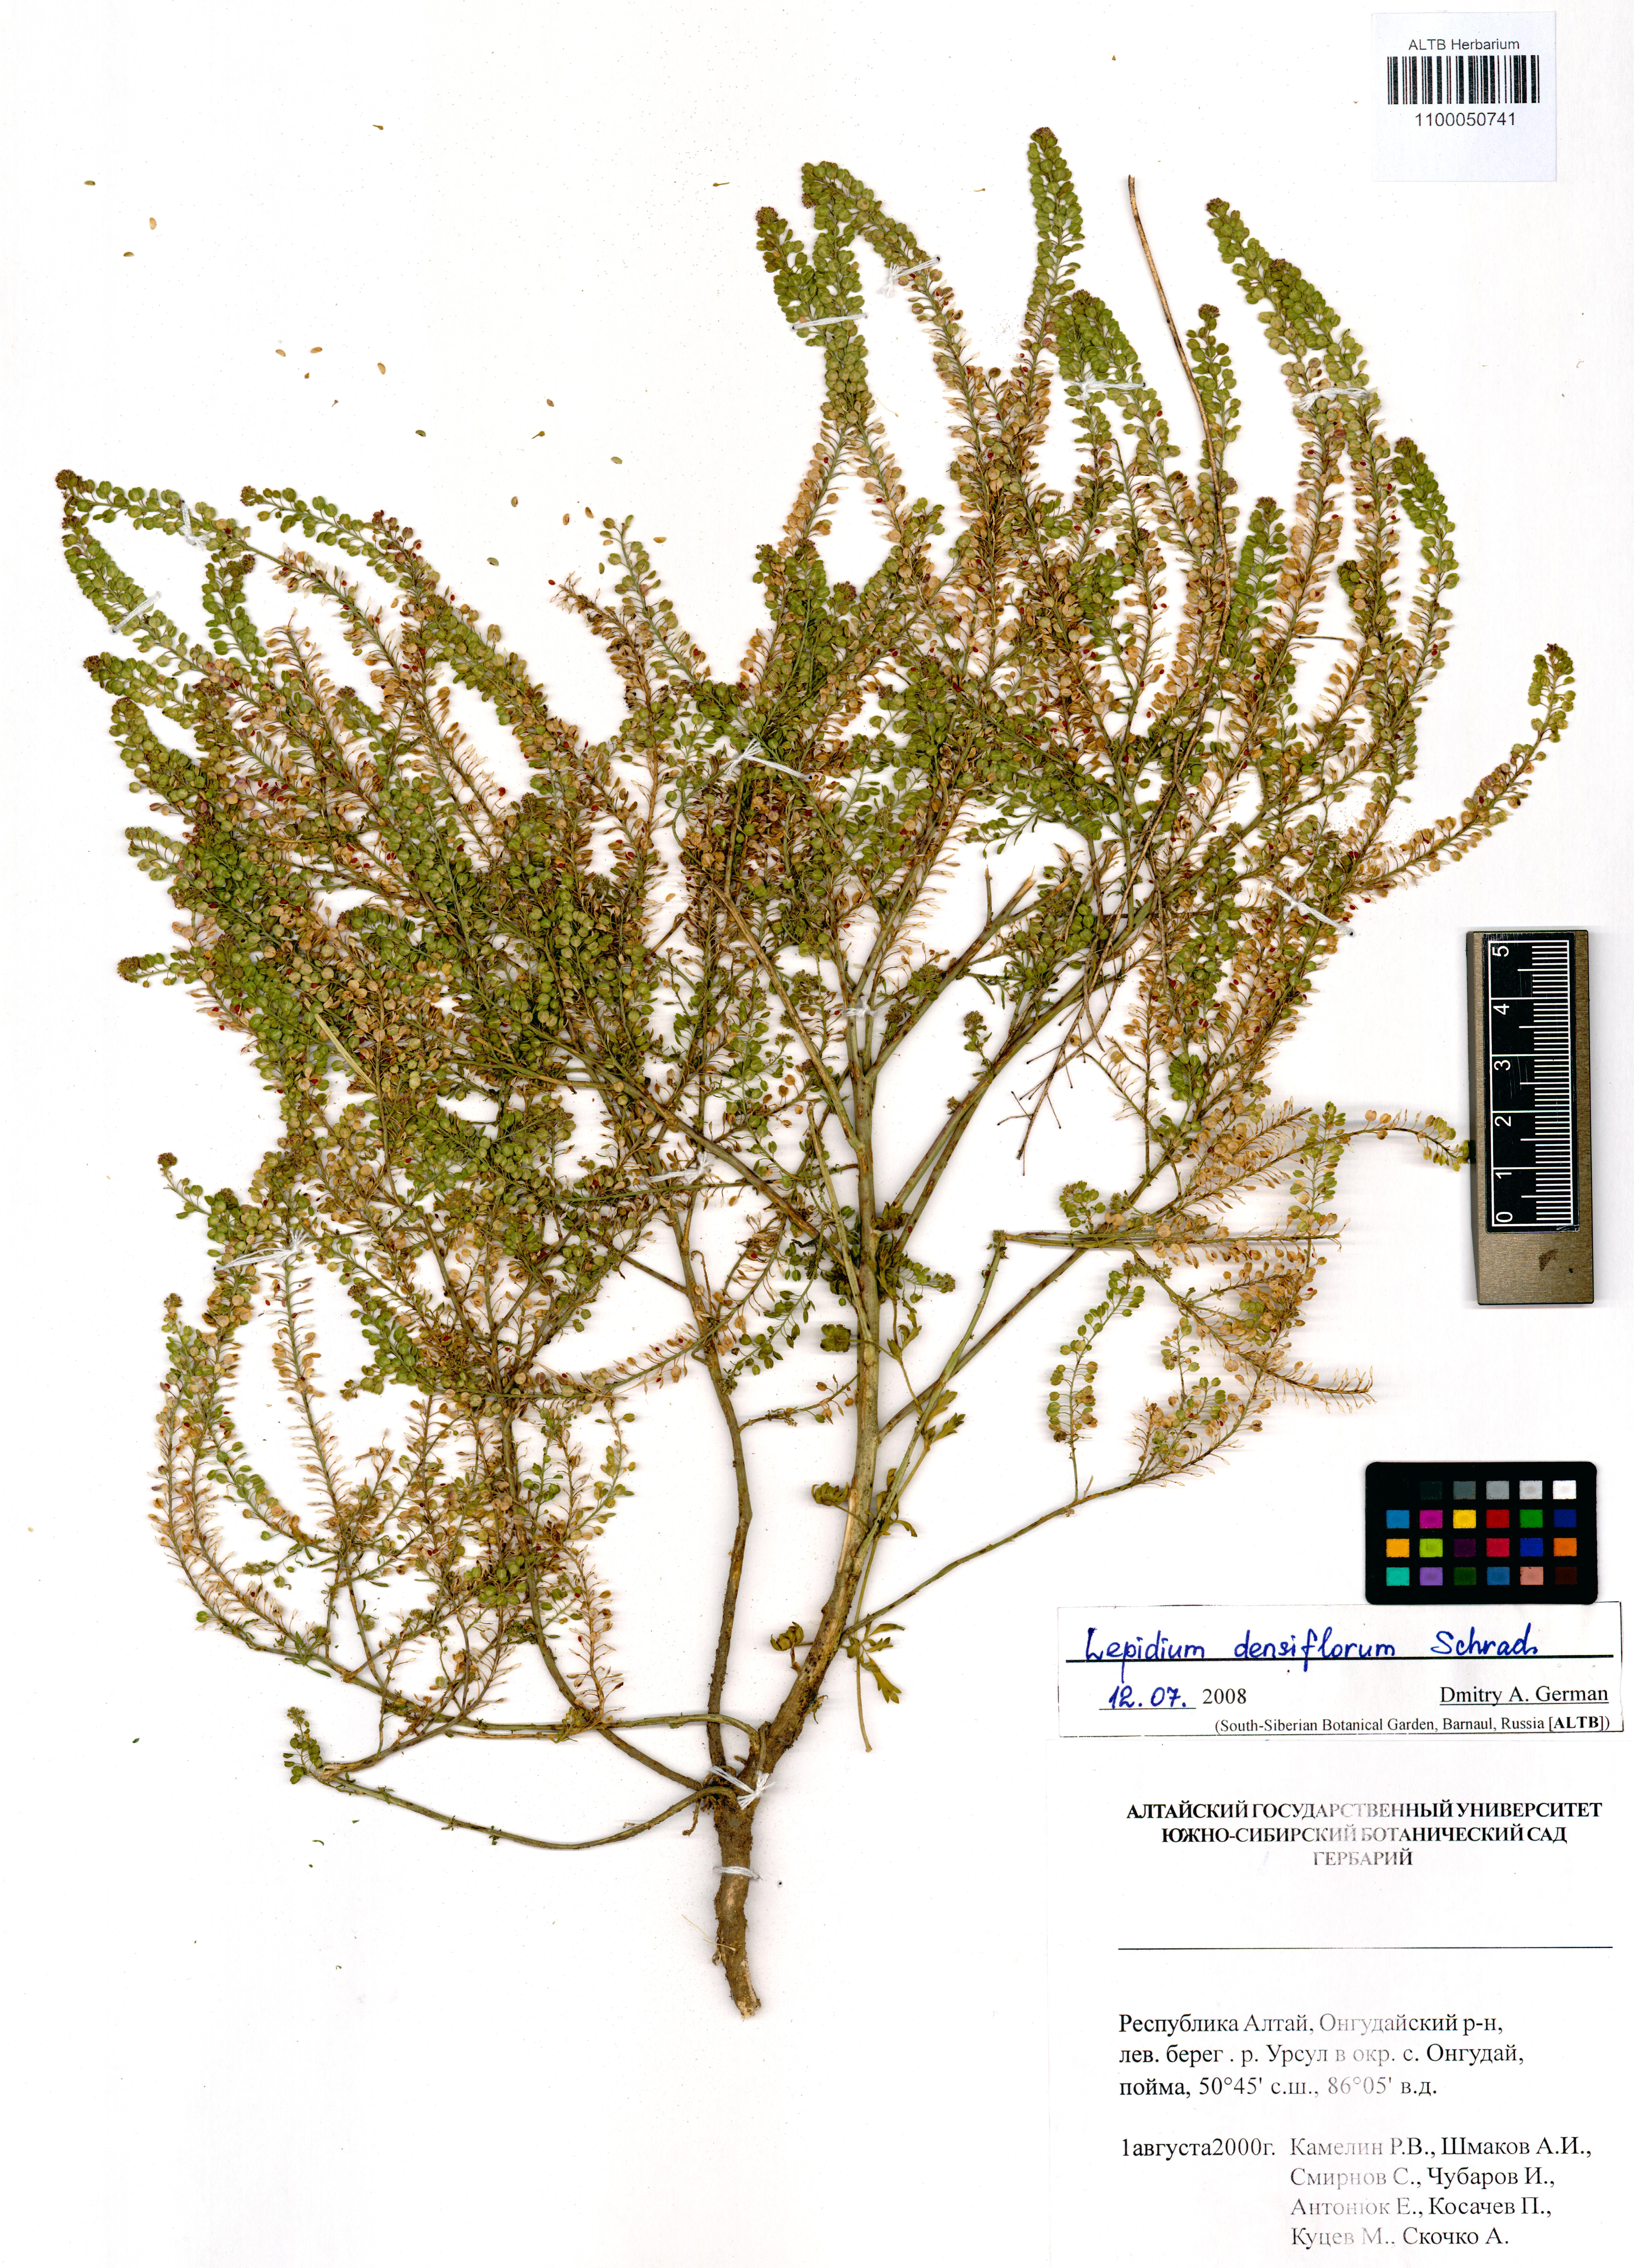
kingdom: Plantae
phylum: Tracheophyta
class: Magnoliopsida
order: Brassicales
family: Brassicaceae
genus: Lepidium
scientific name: Lepidium densiflorum
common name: Miner's pepperwort
